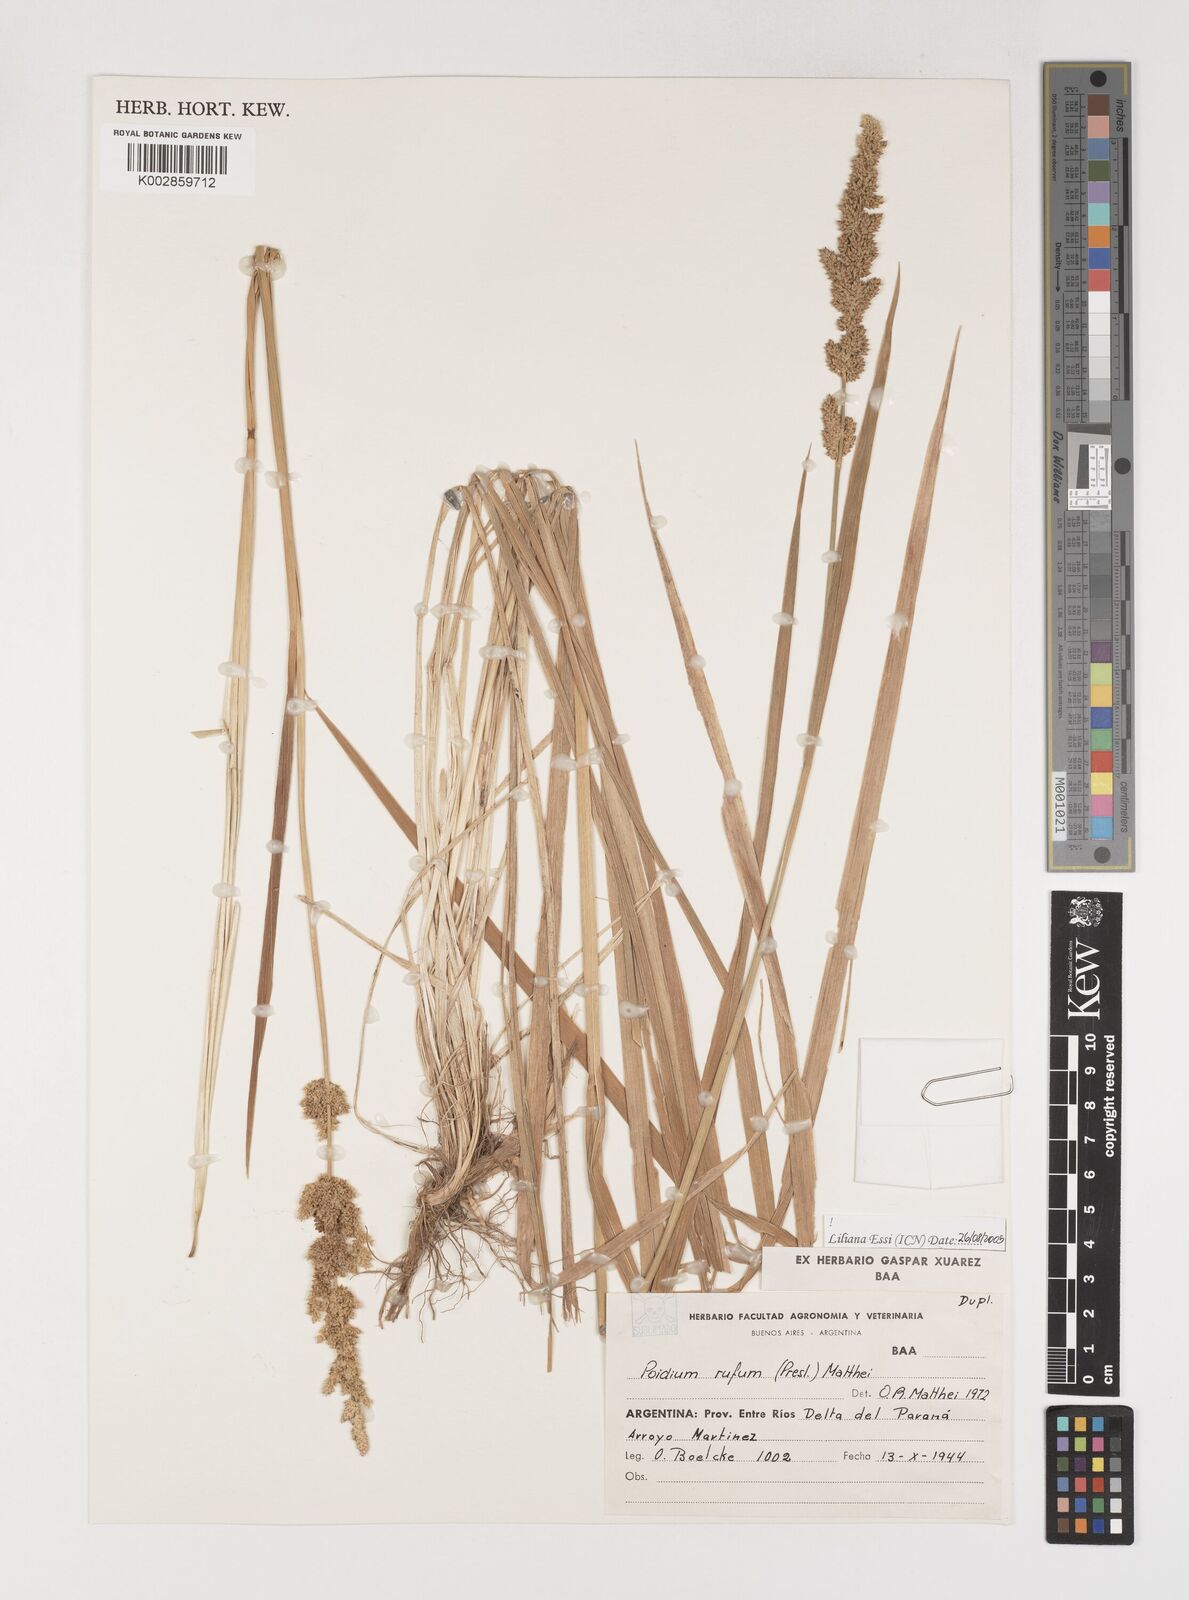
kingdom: Plantae
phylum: Tracheophyta
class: Liliopsida
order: Poales
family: Poaceae
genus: Lombardochloa
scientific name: Lombardochloa rufa
